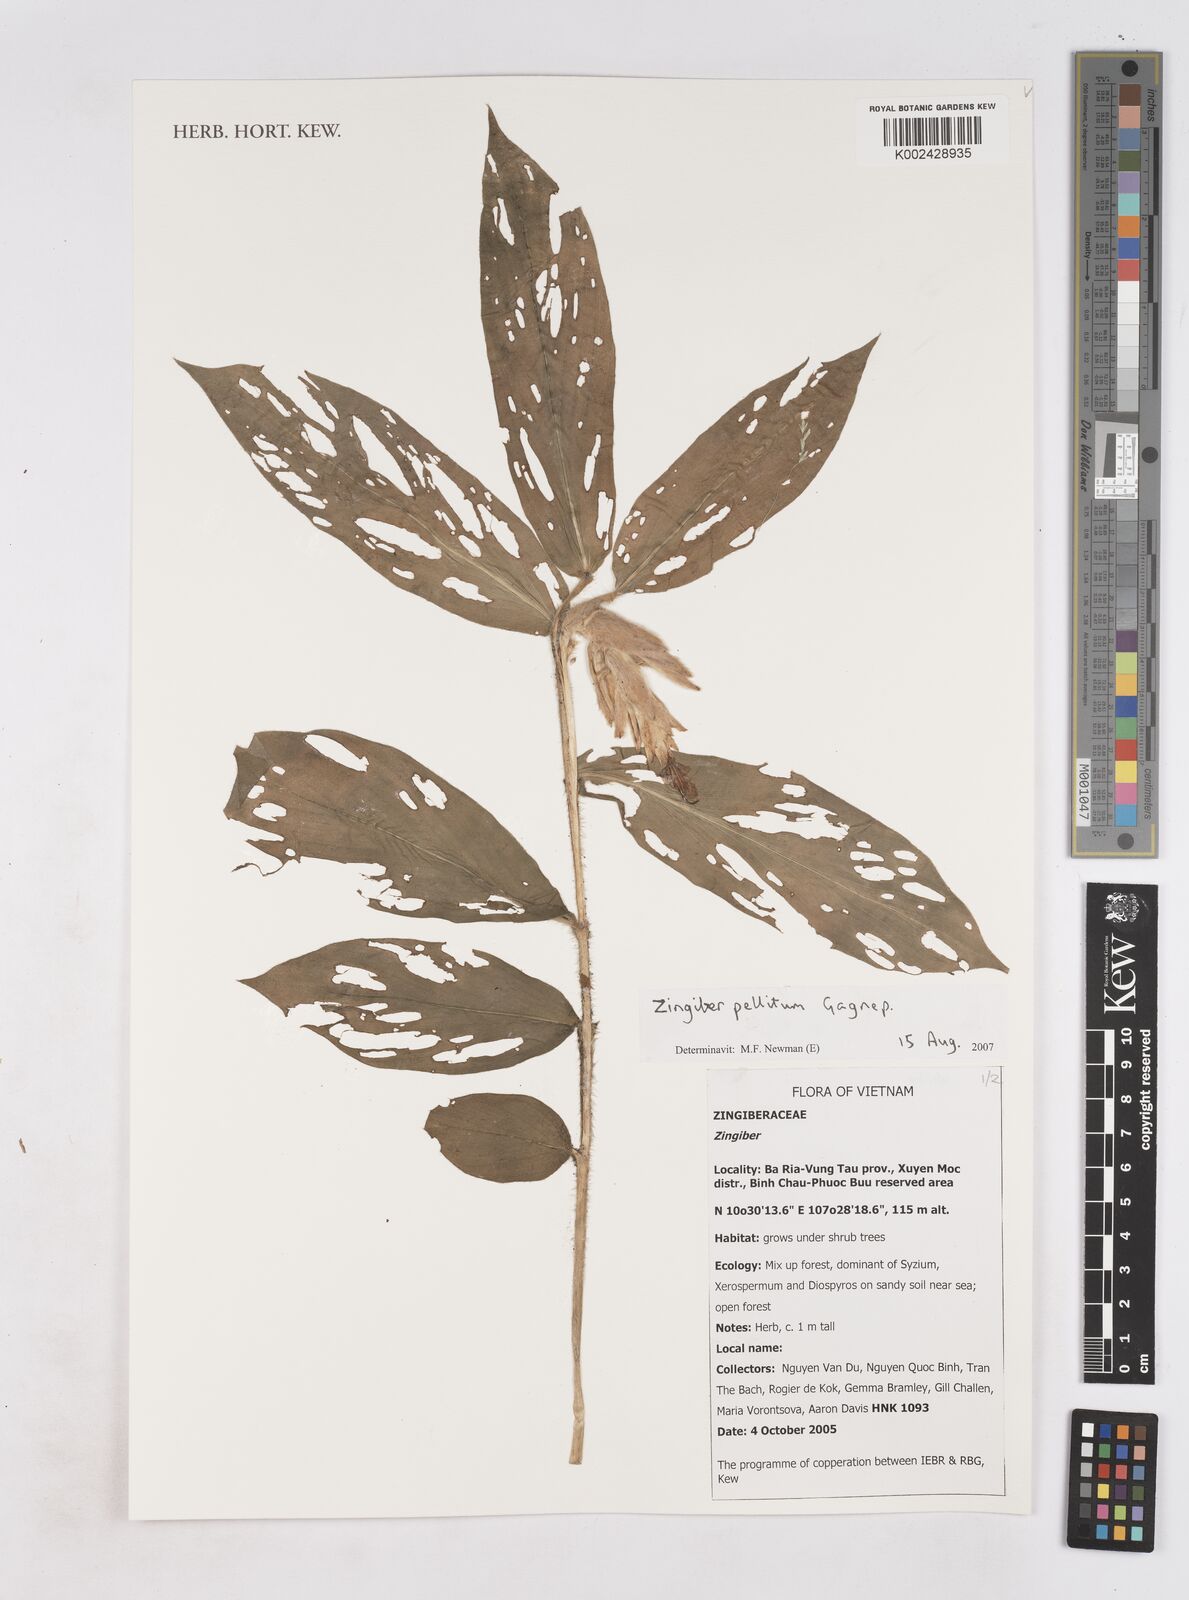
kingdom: Plantae
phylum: Tracheophyta
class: Liliopsida
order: Zingiberales
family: Zingiberaceae
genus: Zingiber
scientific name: Zingiber pellitum
